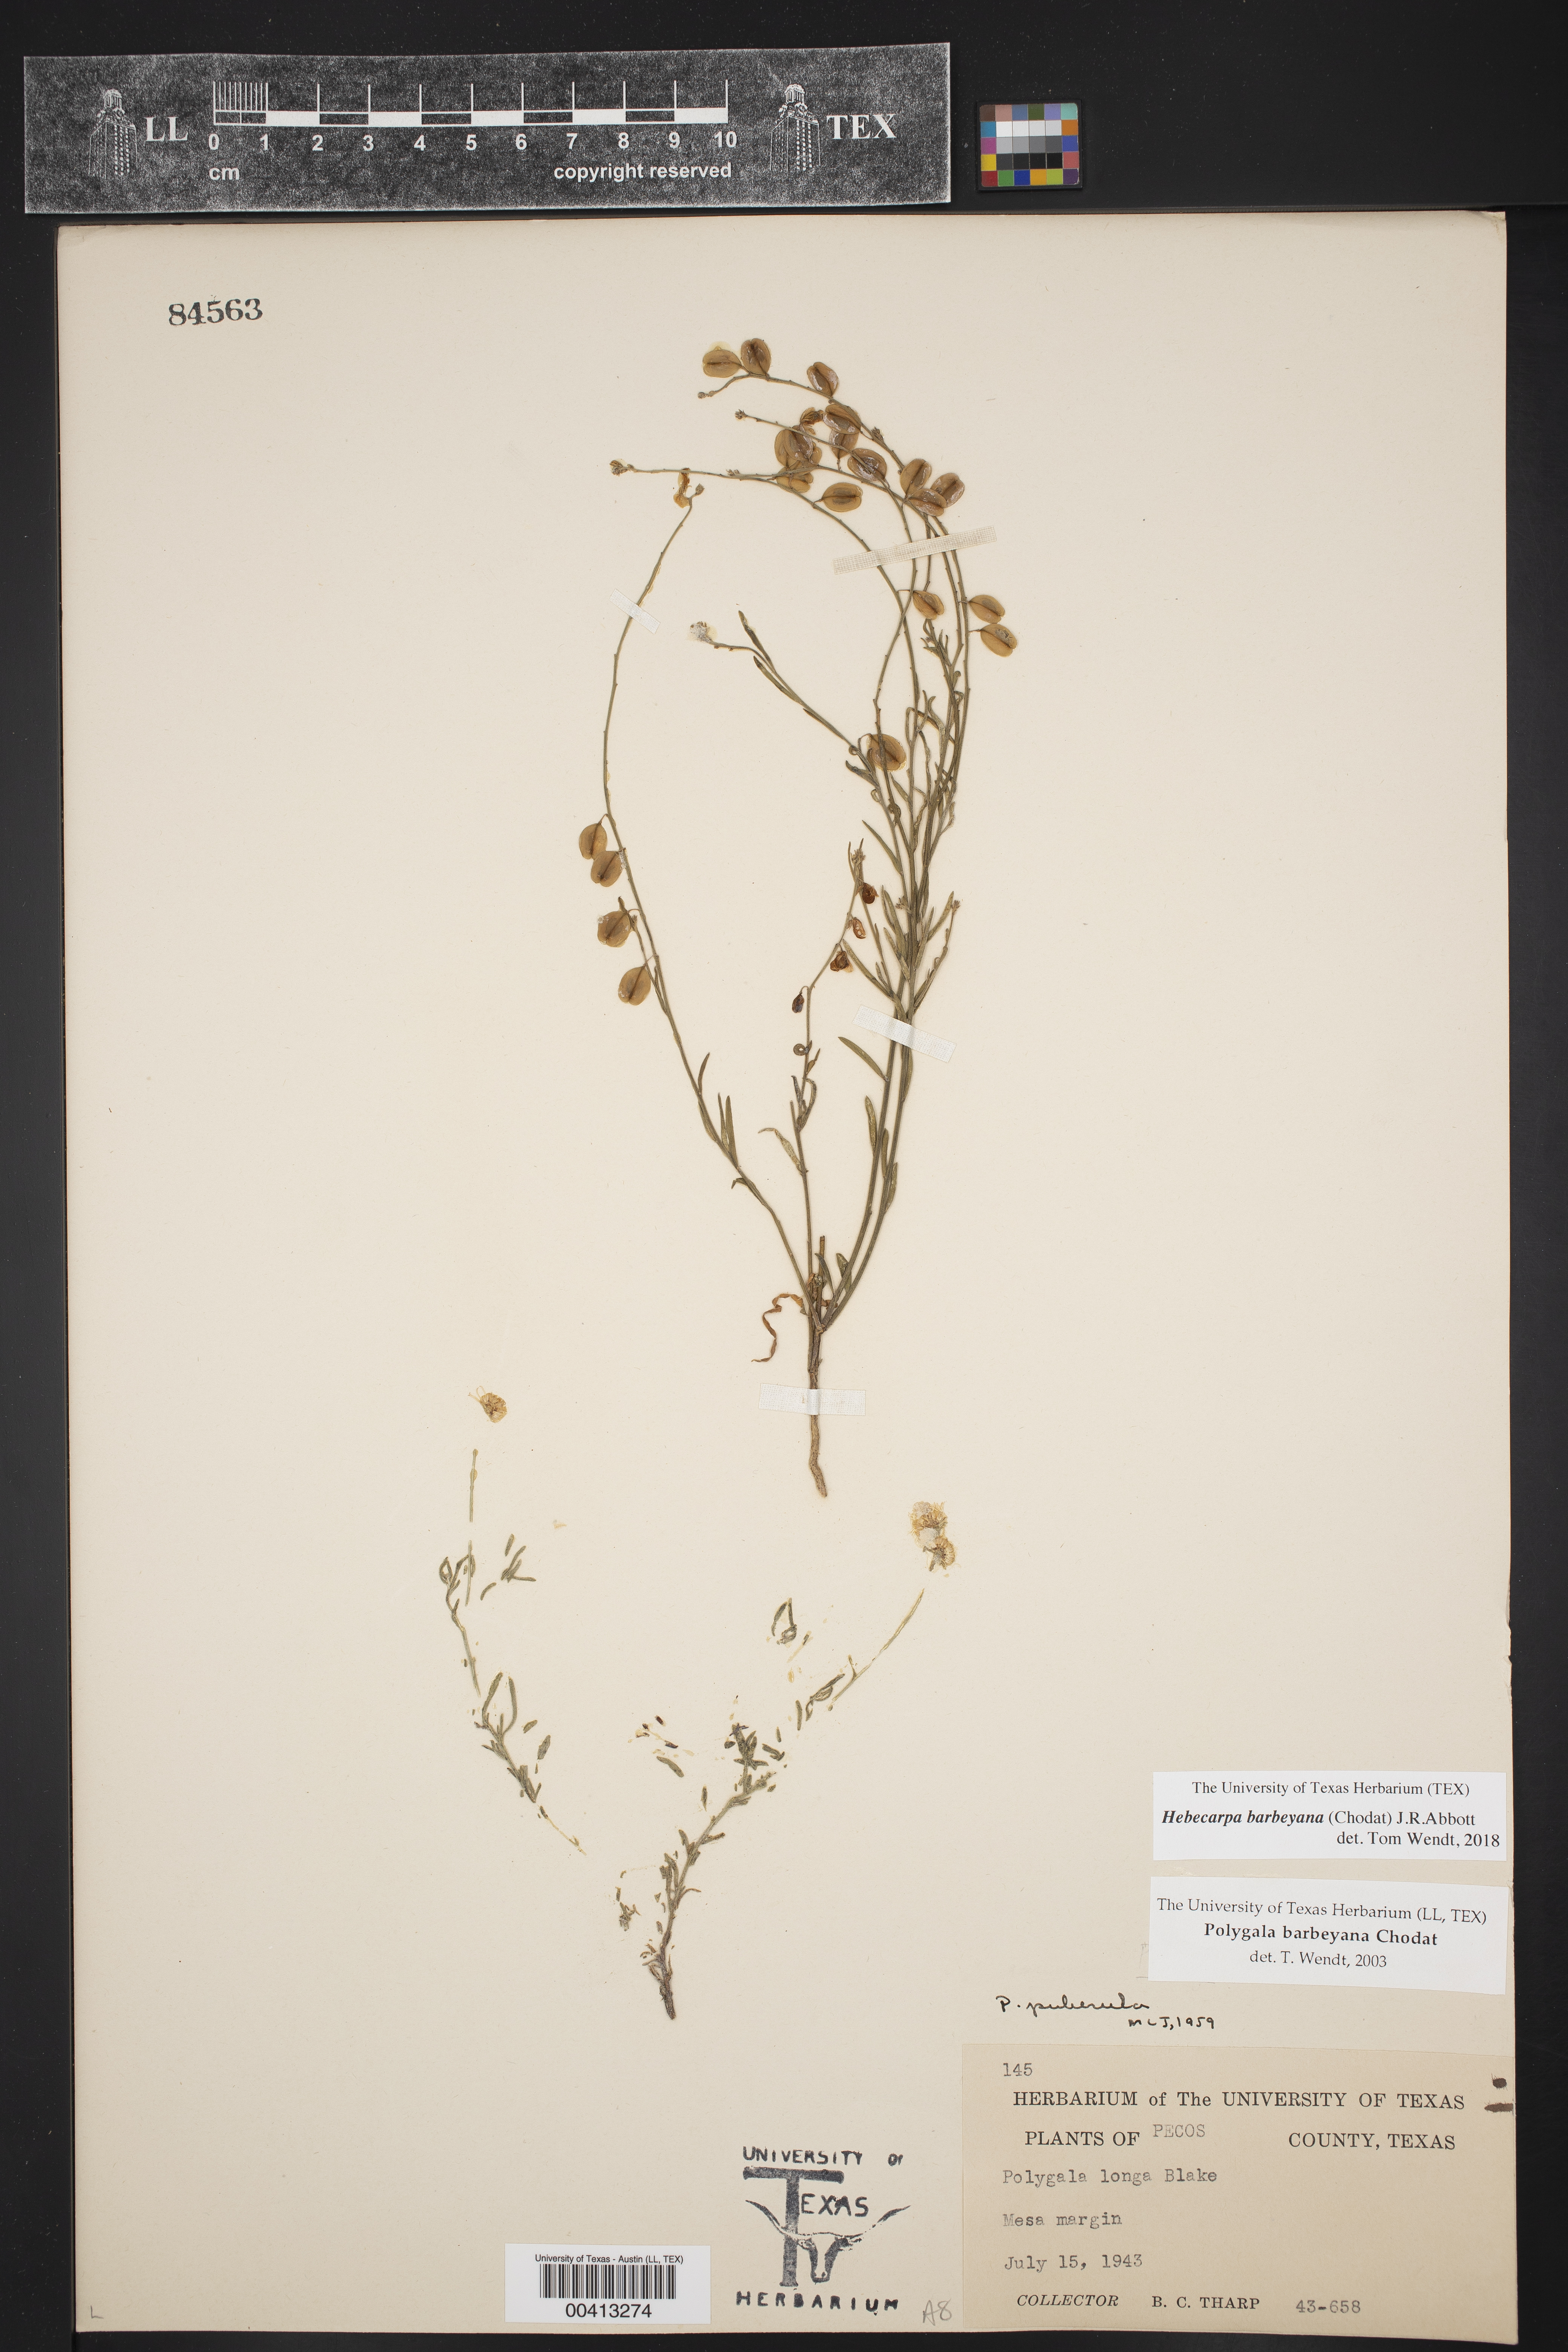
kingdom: Plantae
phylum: Tracheophyta
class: Magnoliopsida
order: Fabales
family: Polygalaceae
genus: Hebecarpa
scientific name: Hebecarpa barbeyana
